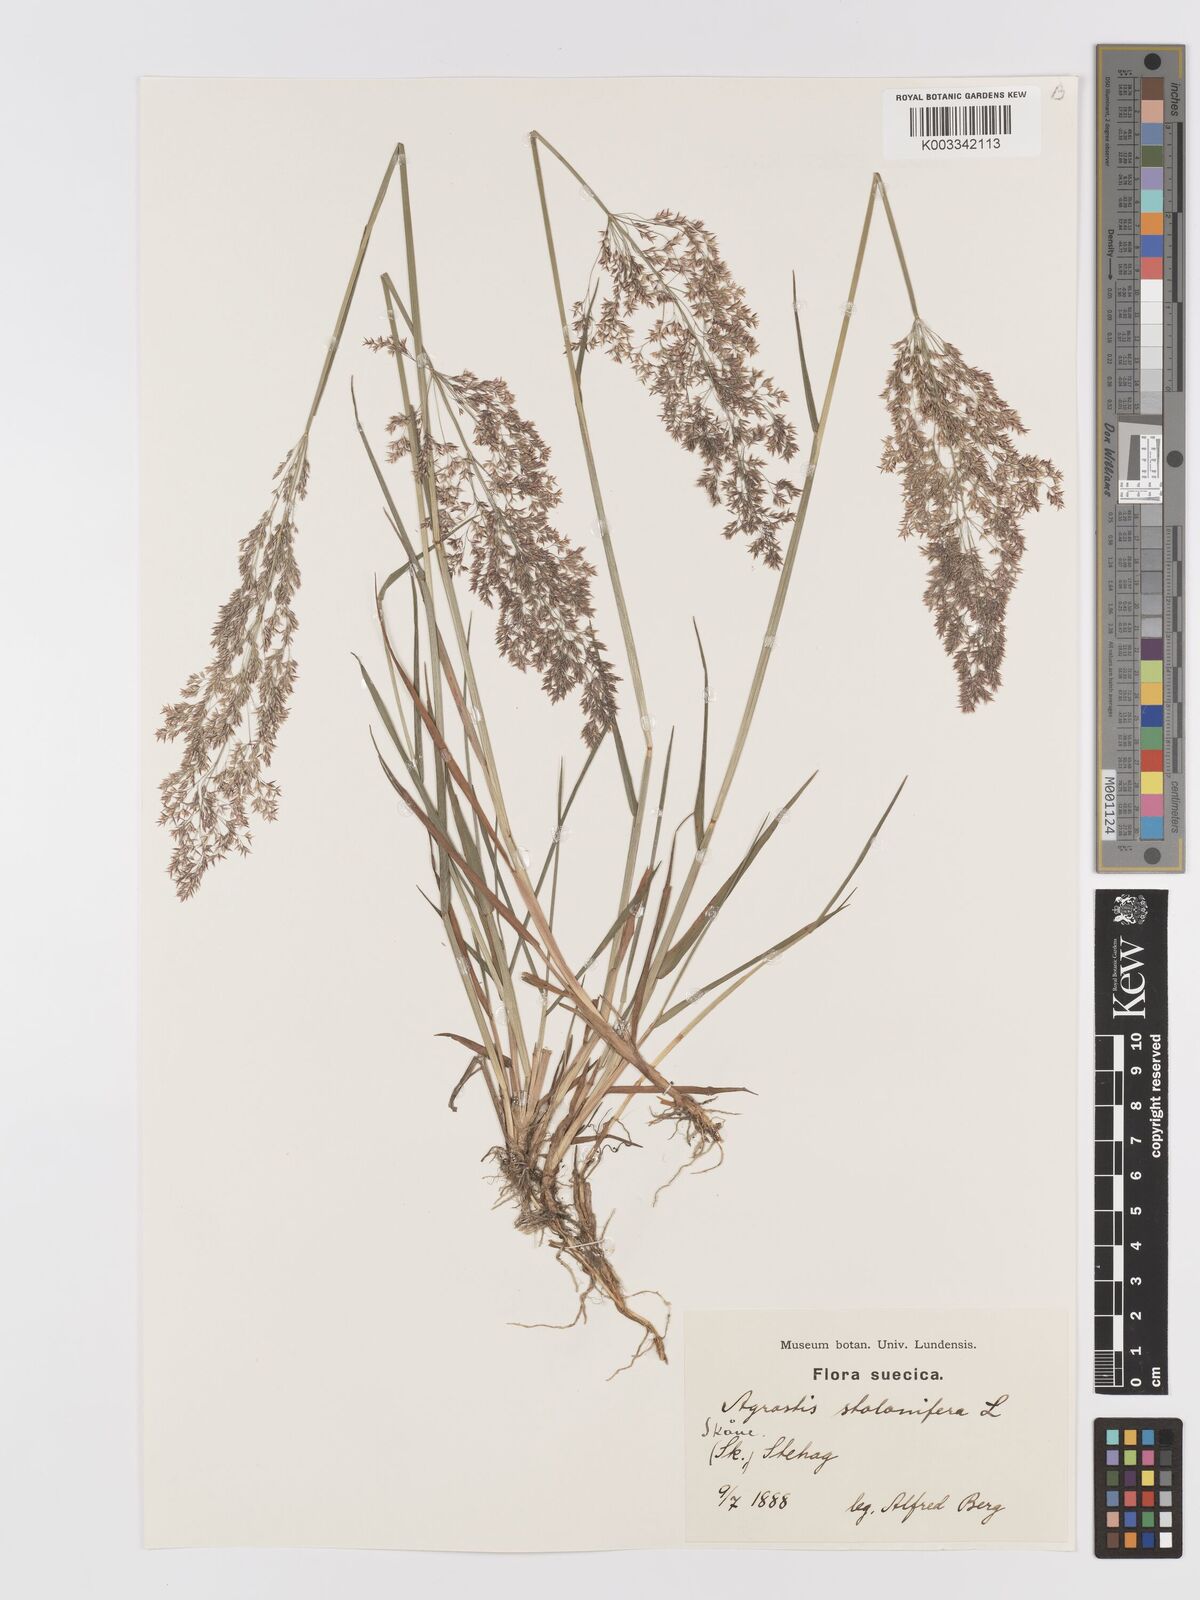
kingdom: Plantae
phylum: Tracheophyta
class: Liliopsida
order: Poales
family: Poaceae
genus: Agrostis
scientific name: Agrostis stolonifera
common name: Creeping bentgrass
